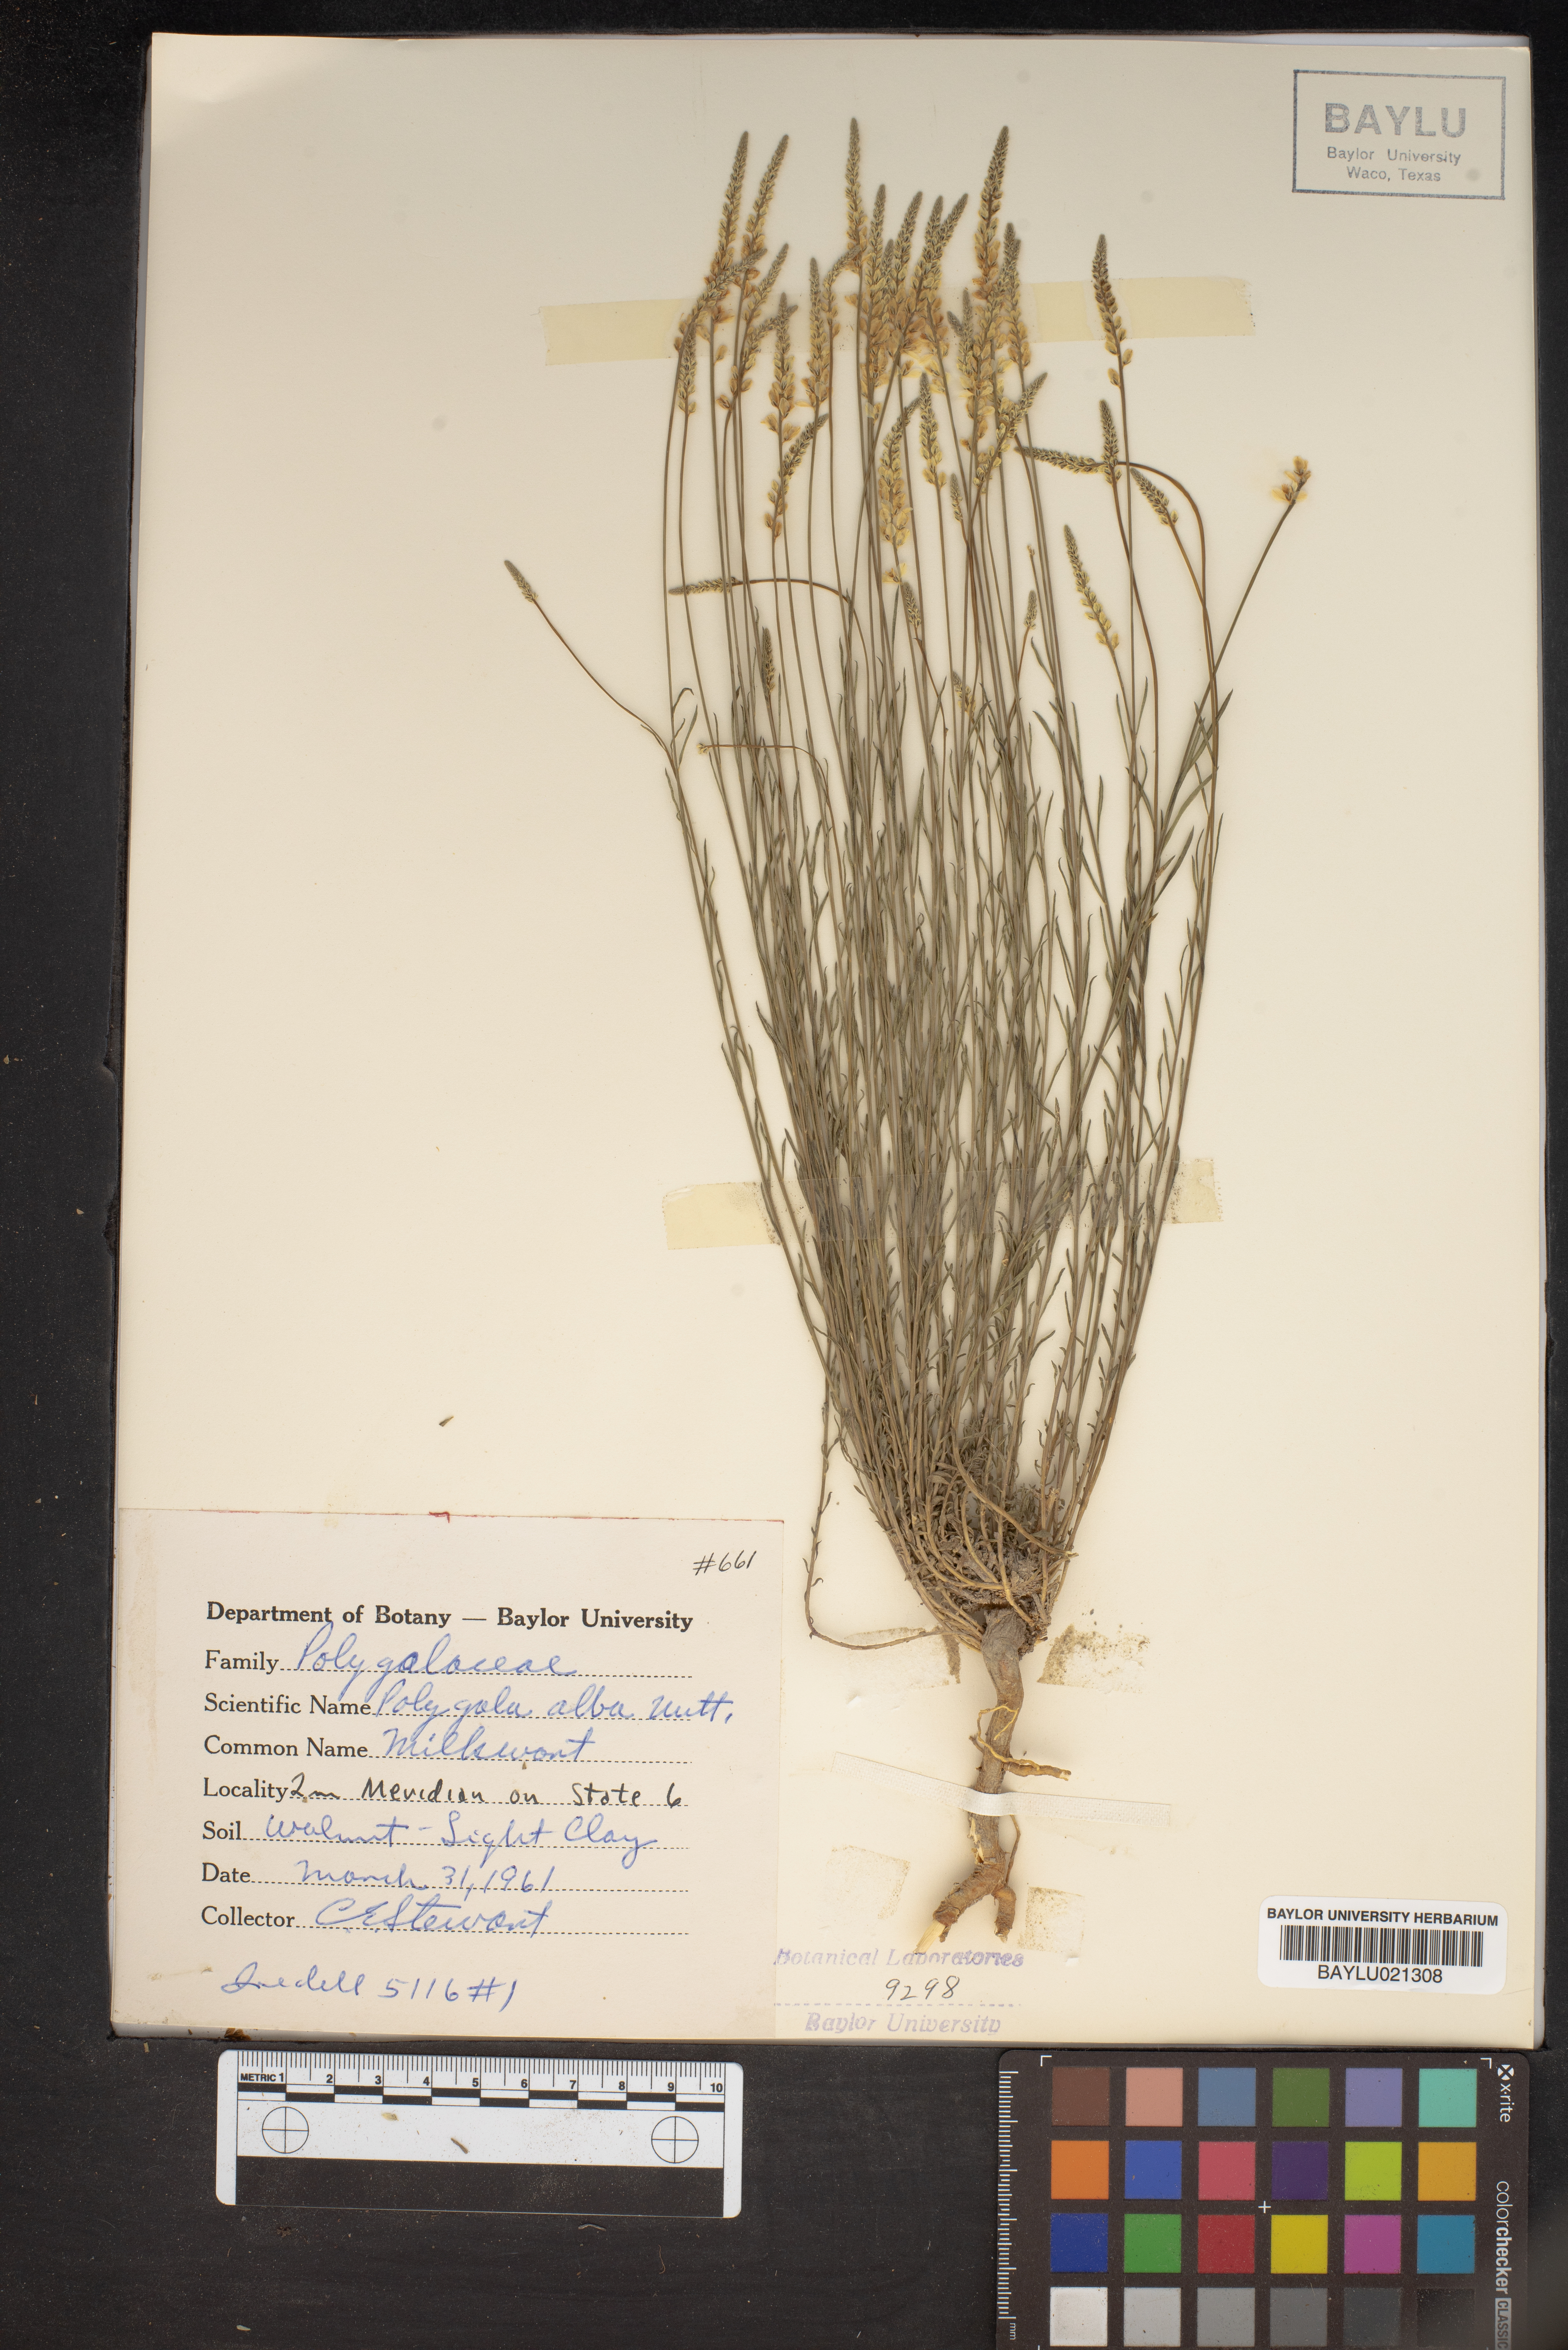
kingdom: Plantae
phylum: Tracheophyta
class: Magnoliopsida
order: Fabales
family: Polygalaceae
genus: Polygala
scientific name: Polygala alba
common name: White milkwort
